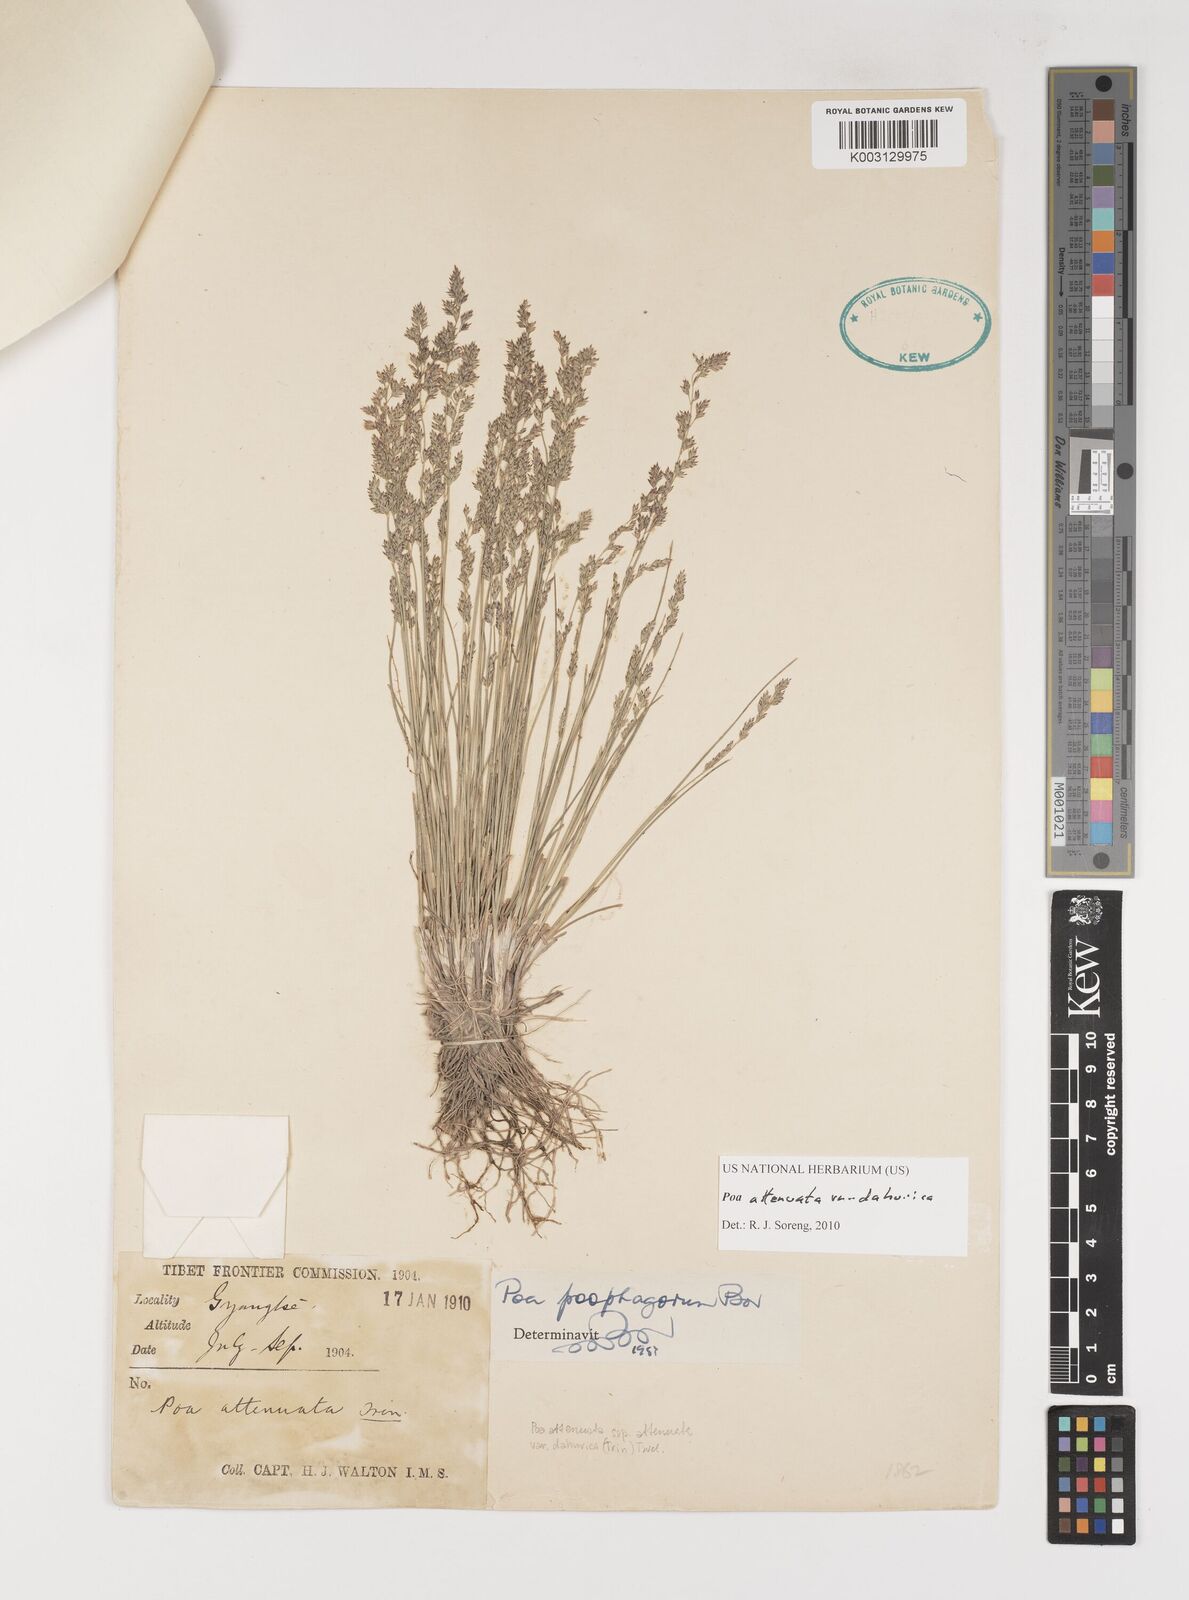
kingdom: Plantae
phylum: Tracheophyta
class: Liliopsida
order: Poales
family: Poaceae
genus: Poa
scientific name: Poa attenuata
